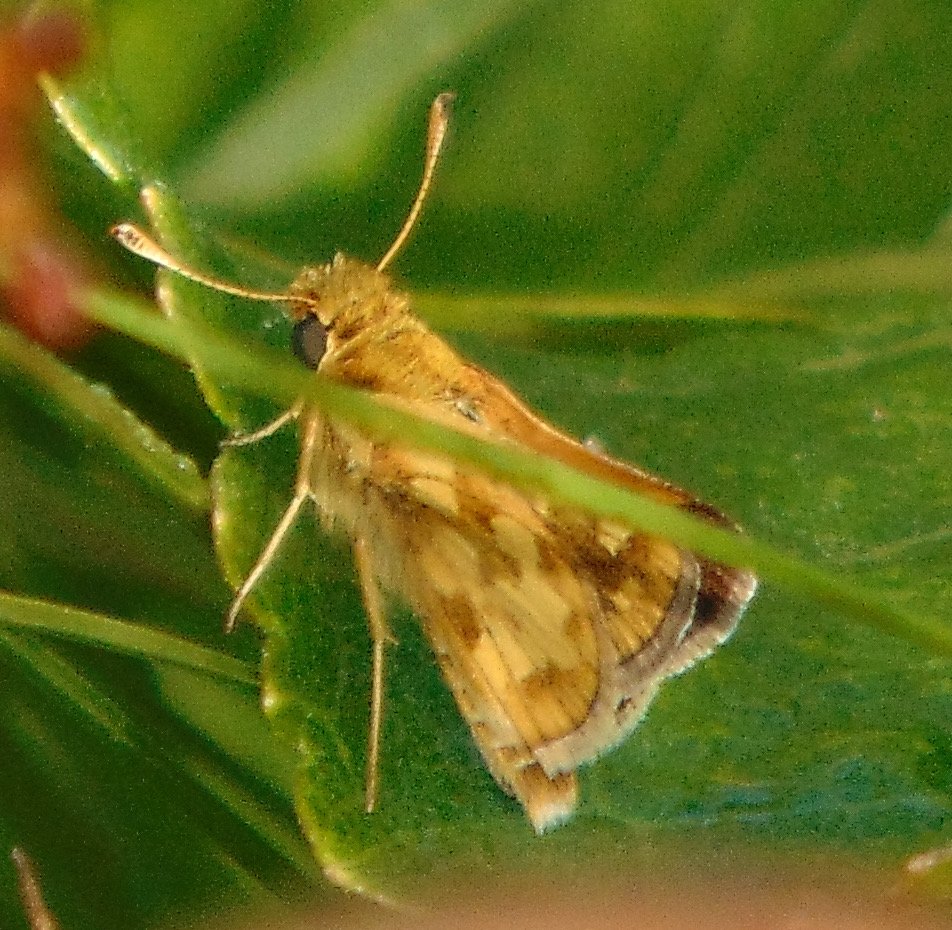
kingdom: Animalia
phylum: Arthropoda
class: Insecta
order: Lepidoptera
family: Hesperiidae
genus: Polites
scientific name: Polites coras
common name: Peck's Skipper
